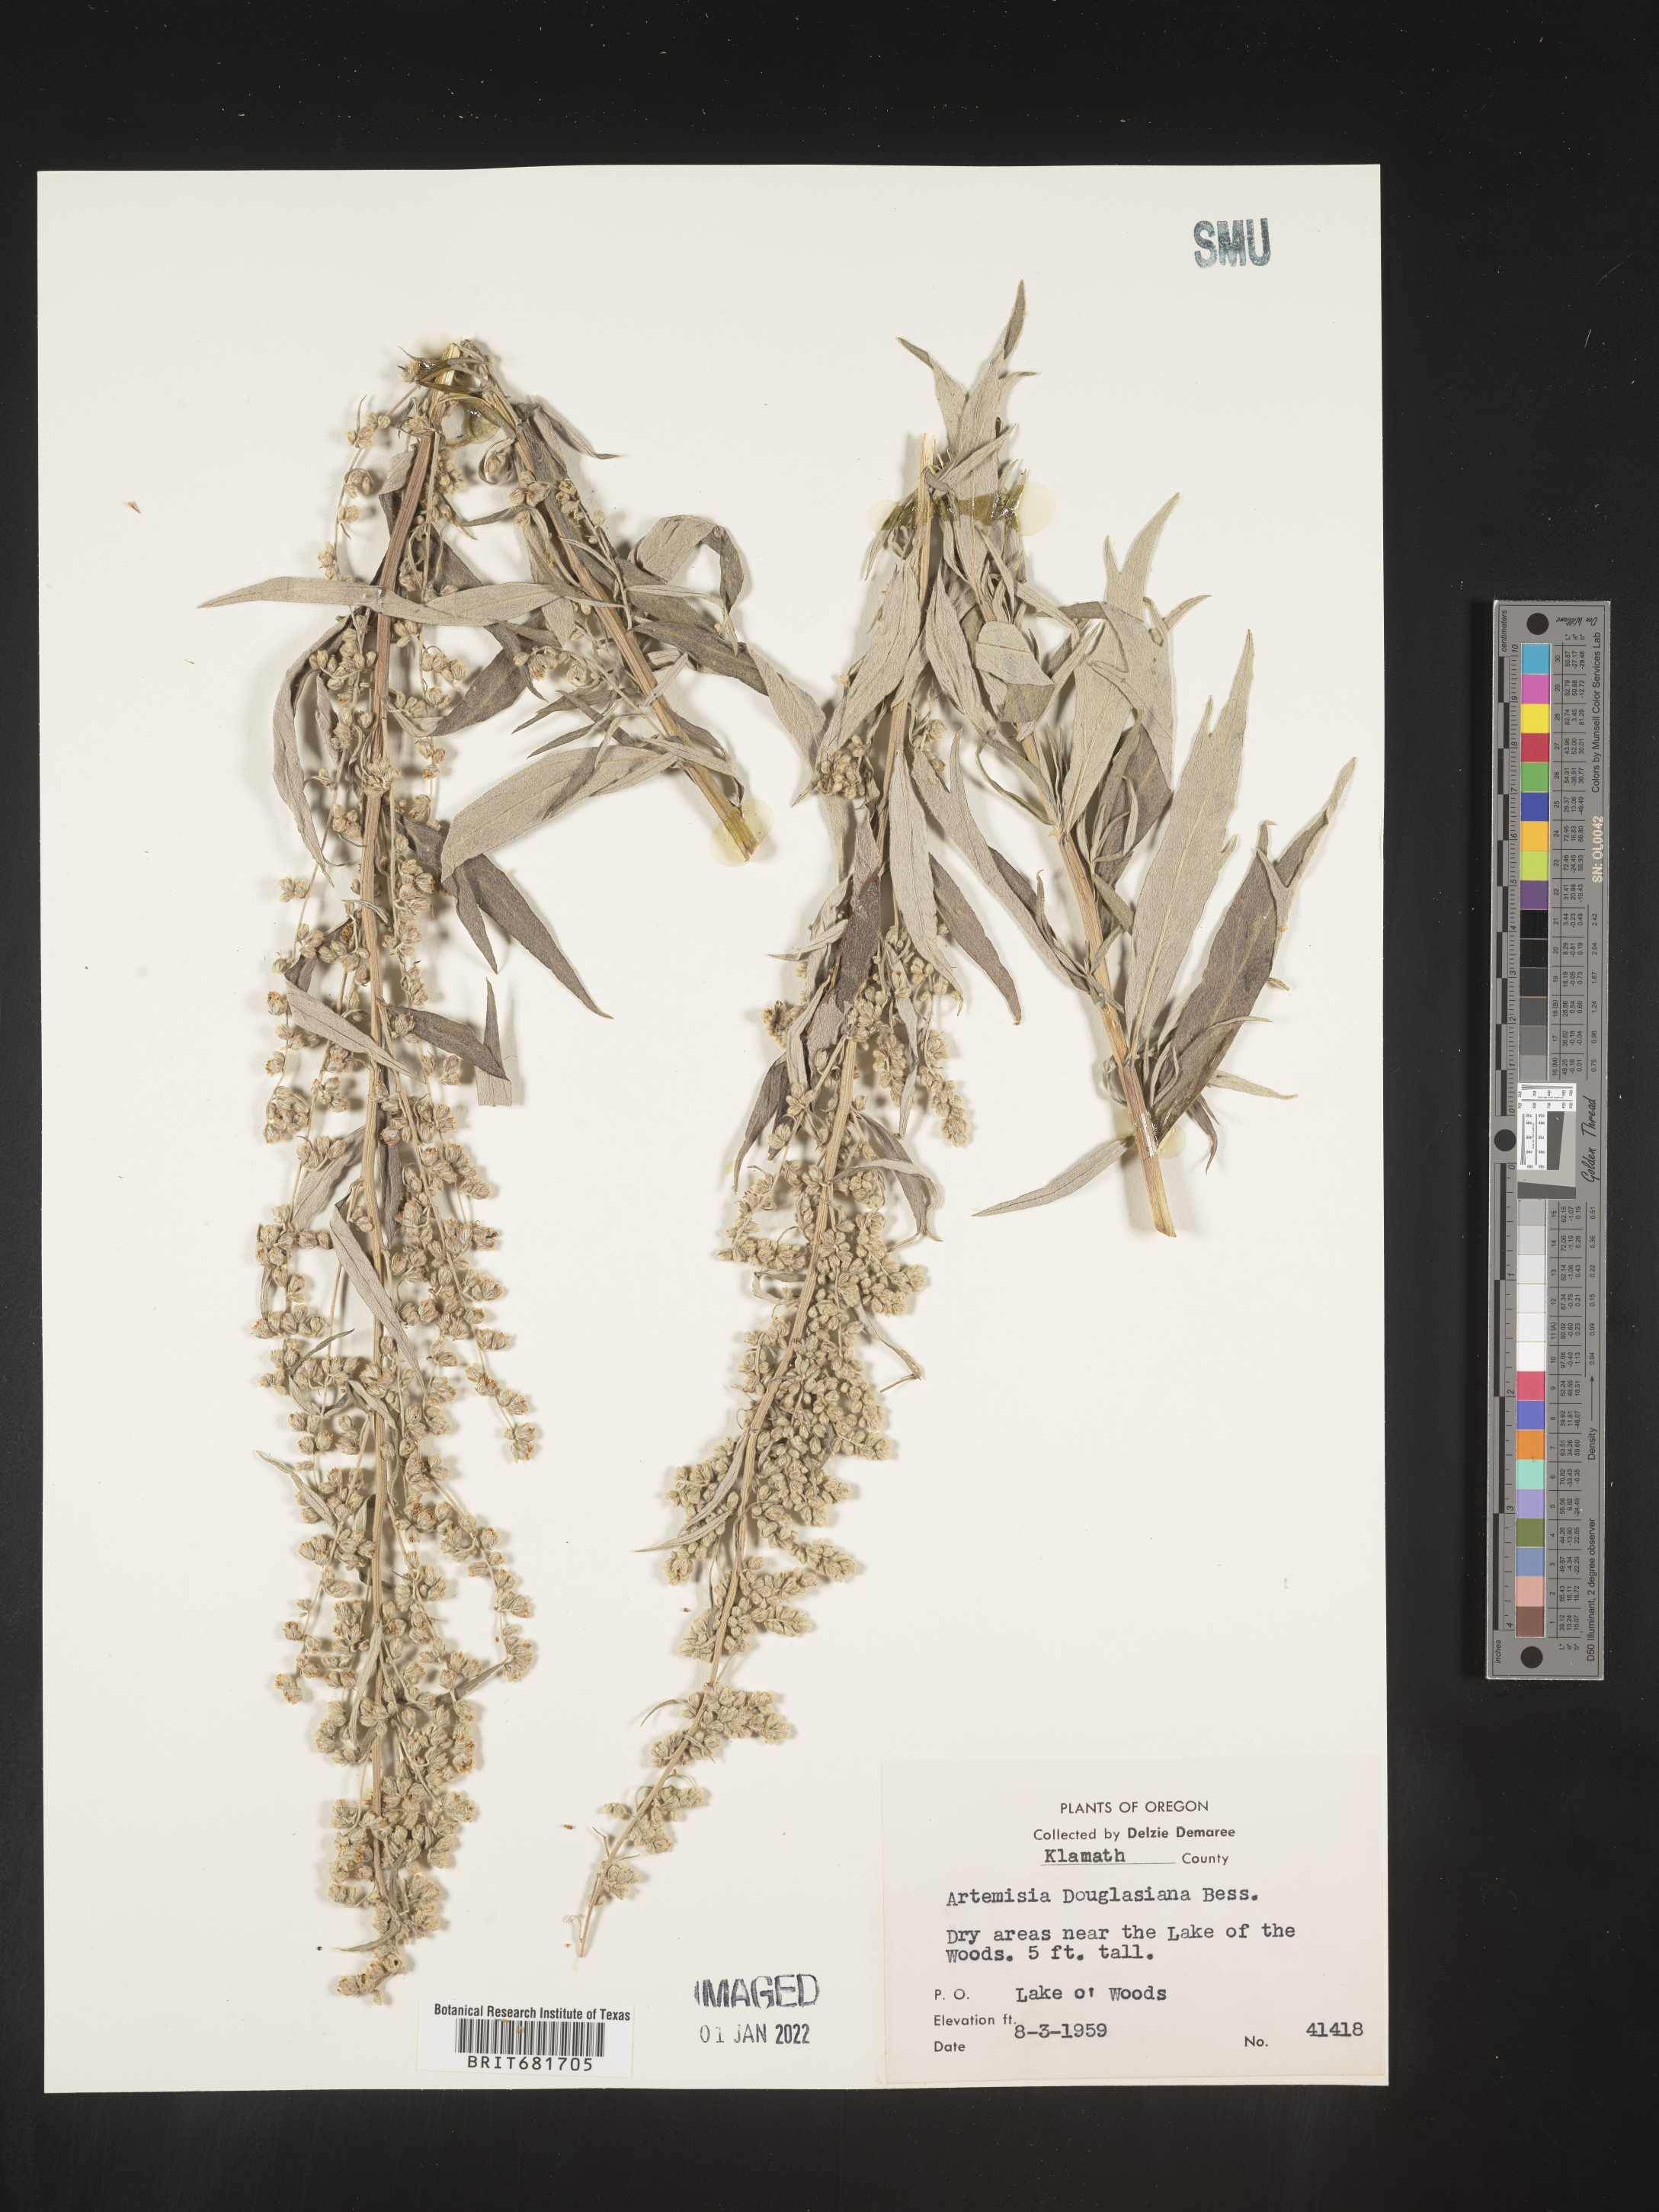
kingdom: Plantae
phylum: Tracheophyta
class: Magnoliopsida
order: Asterales
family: Asteraceae
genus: Artemisia
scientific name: Artemisia douglasiana
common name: Northwest mugwort
